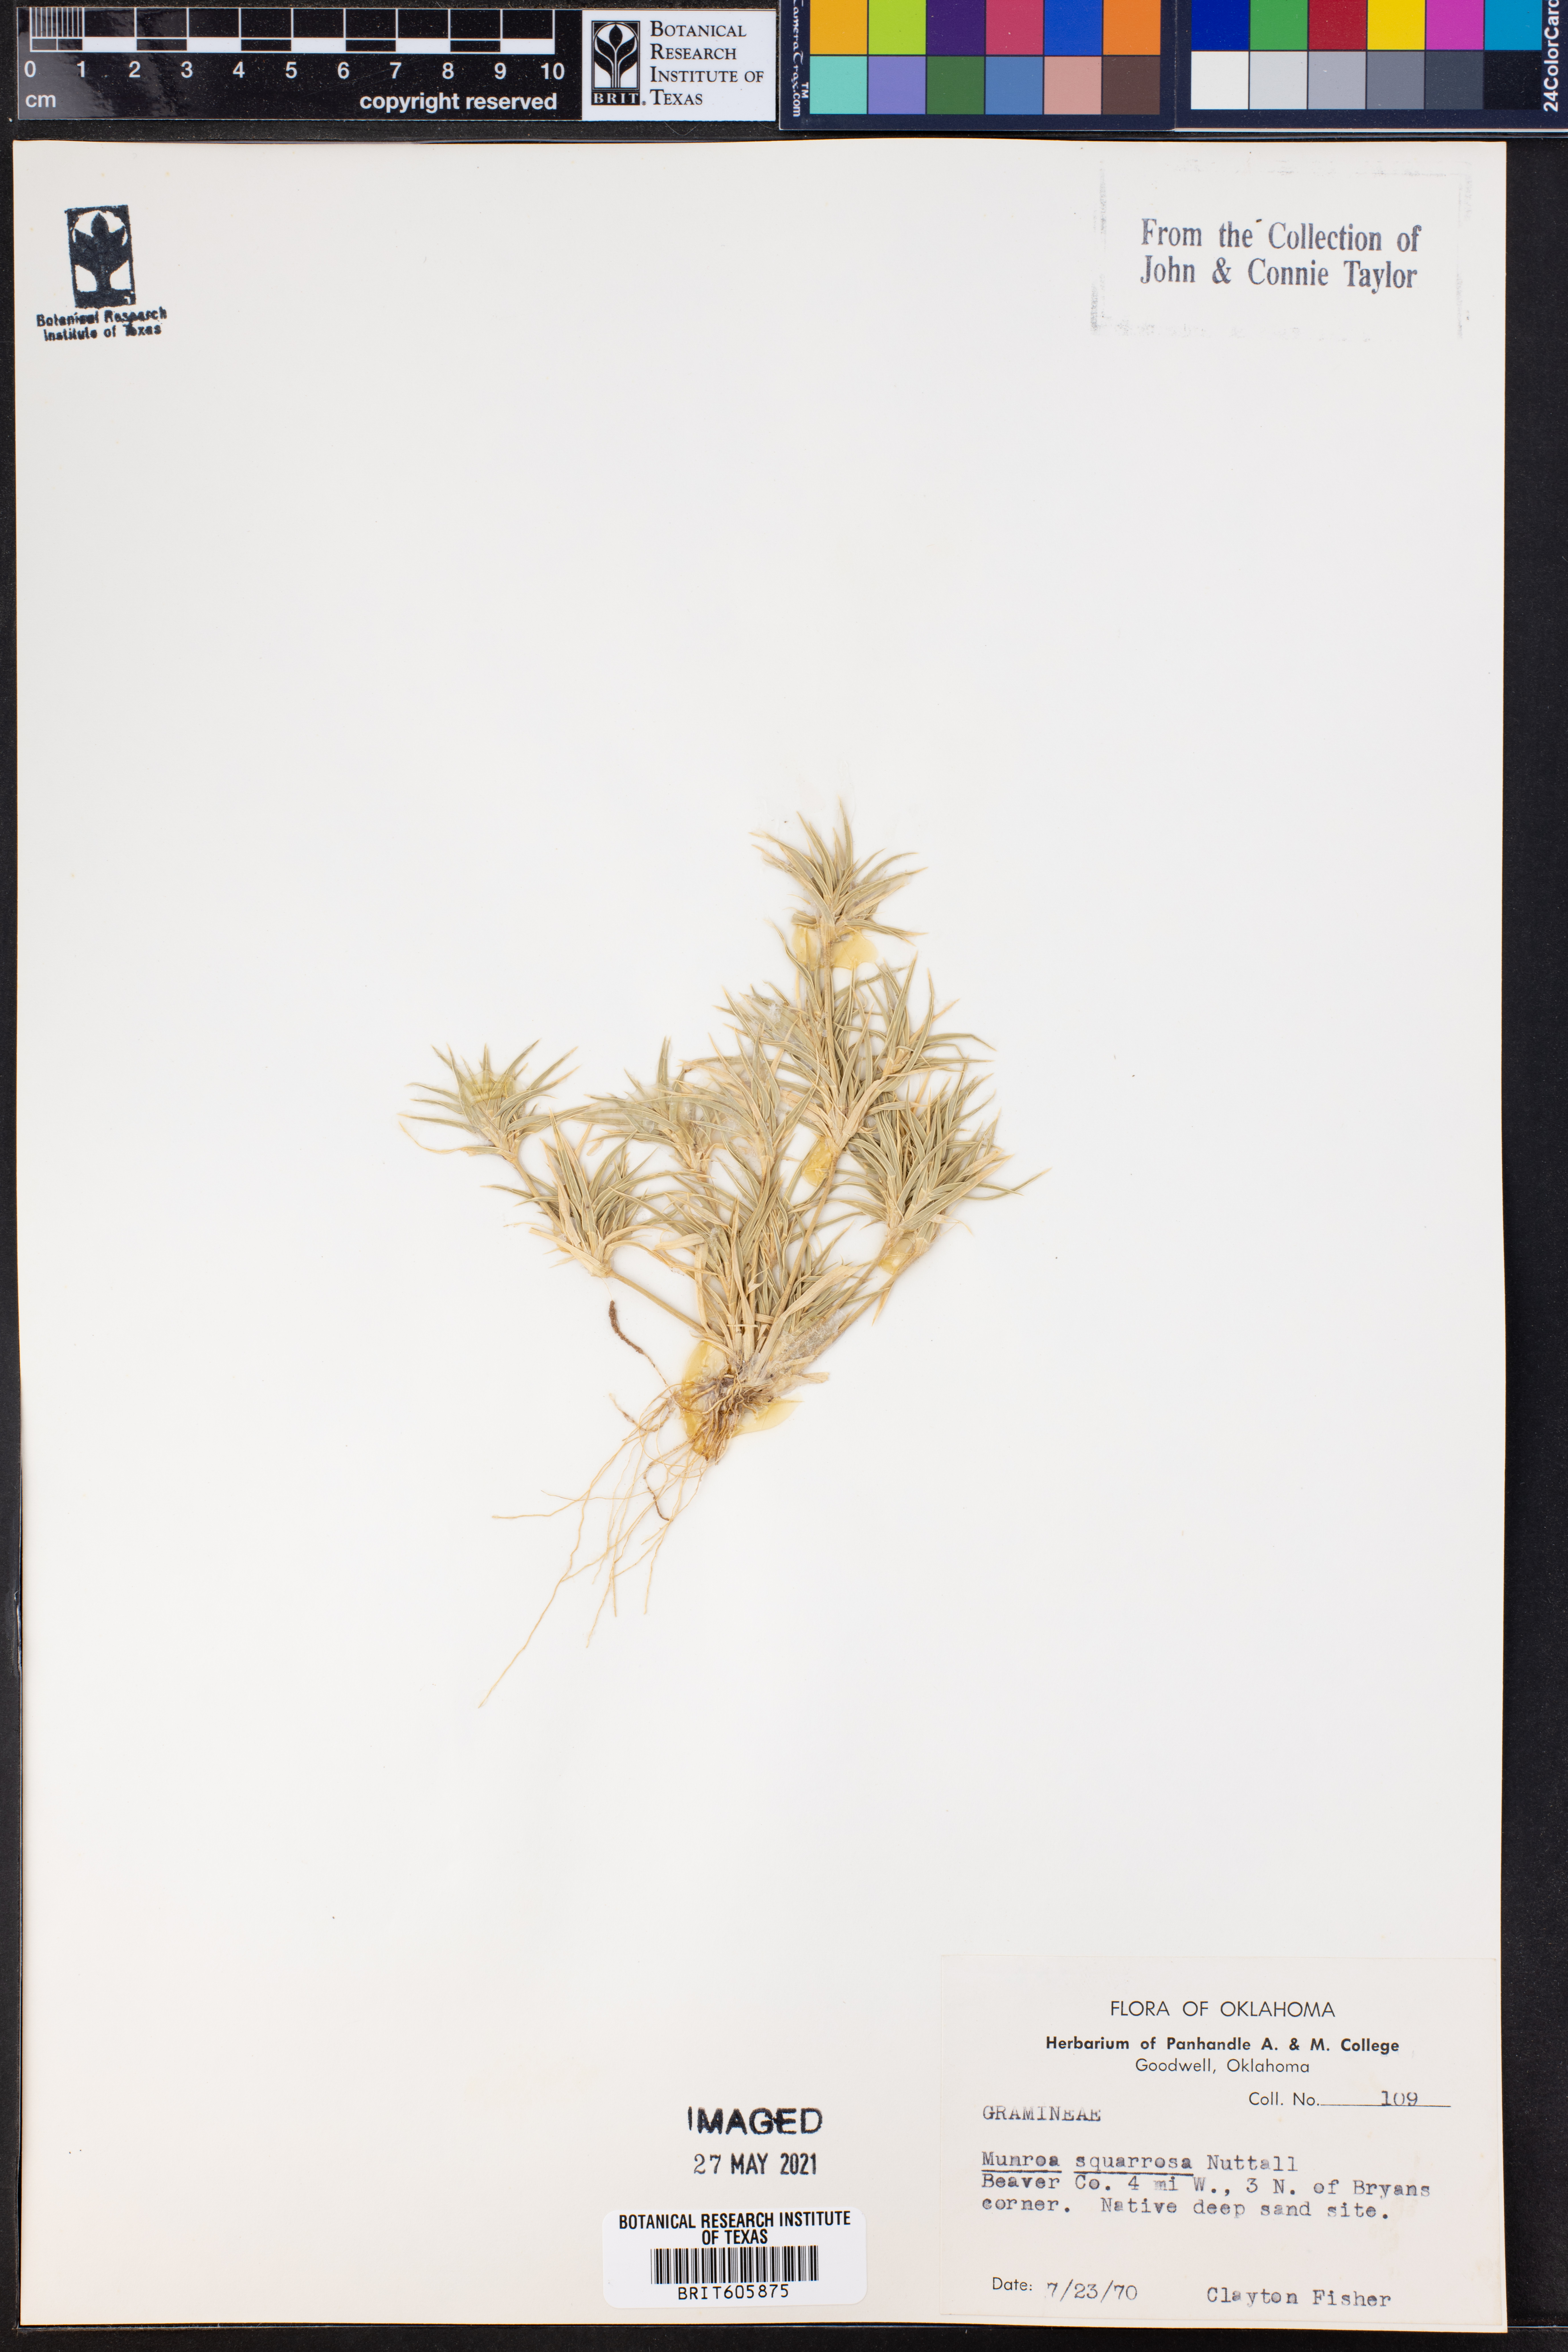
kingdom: Plantae
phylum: Tracheophyta
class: Liliopsida
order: Poales
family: Poaceae
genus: Munroa
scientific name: Munroa squarrosa
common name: False buffalo grass
